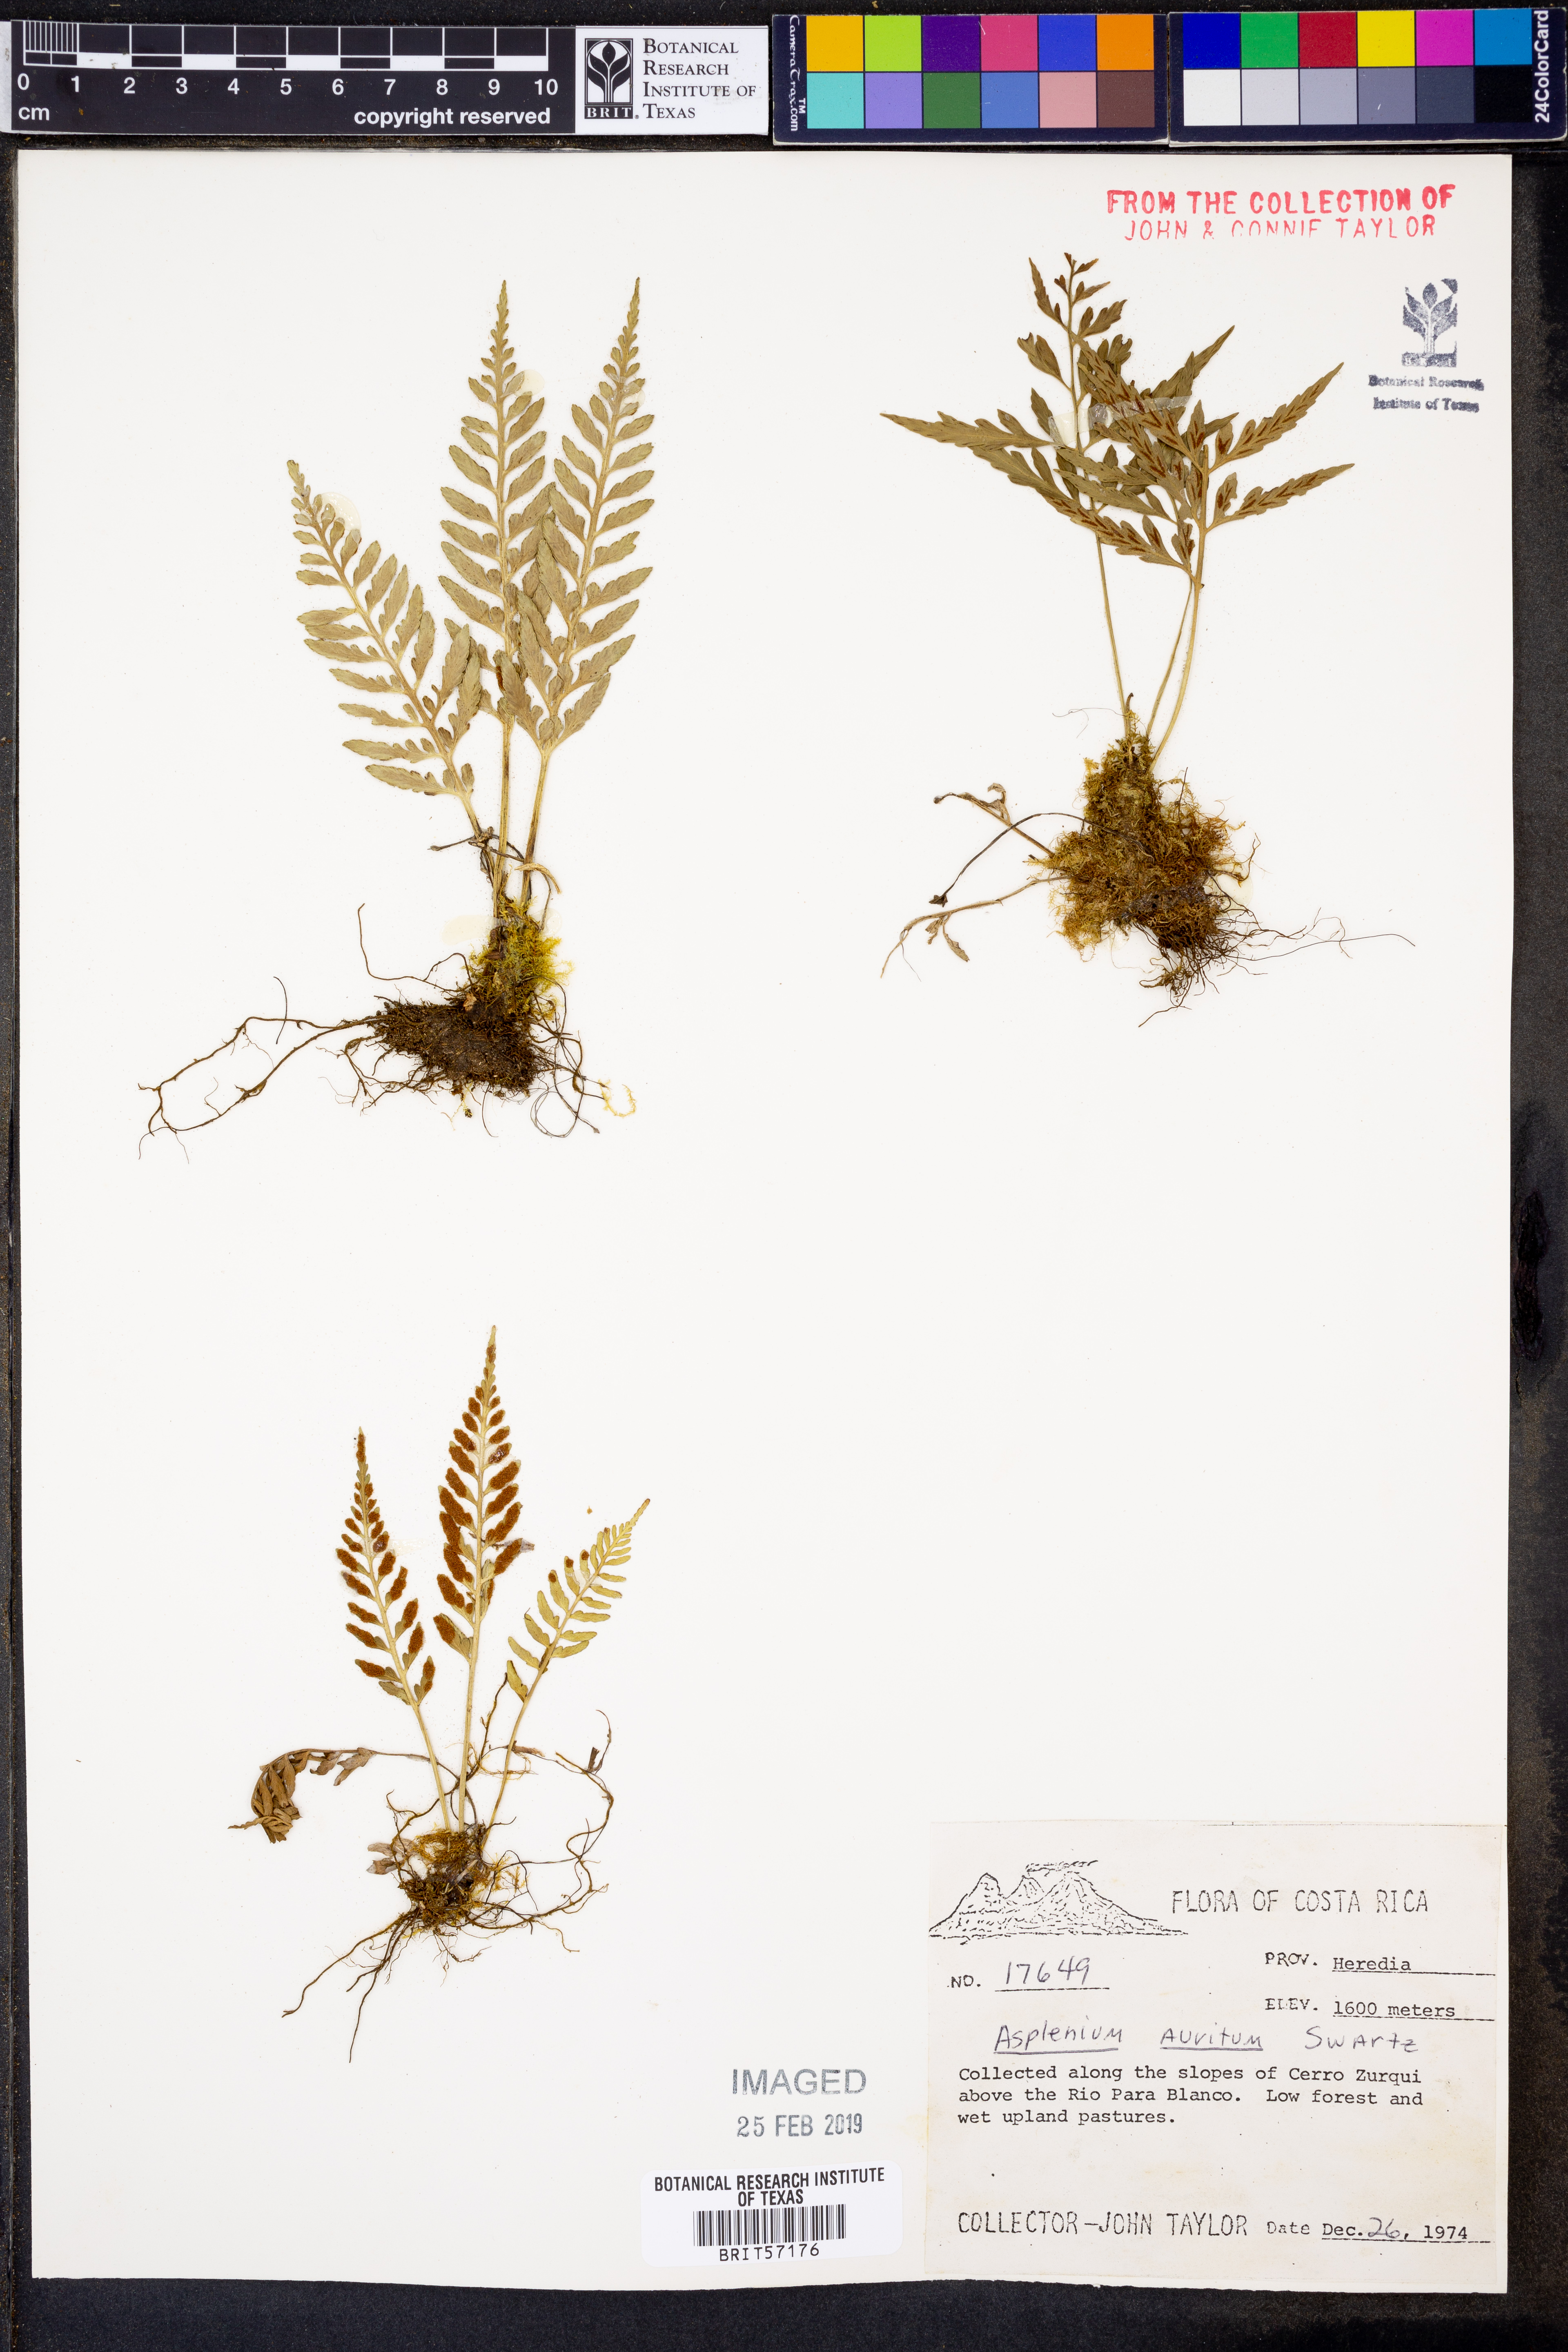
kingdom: Plantae
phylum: Tracheophyta
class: Polypodiopsida
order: Polypodiales
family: Aspleniaceae
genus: Asplenium
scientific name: Asplenium bipartitum
